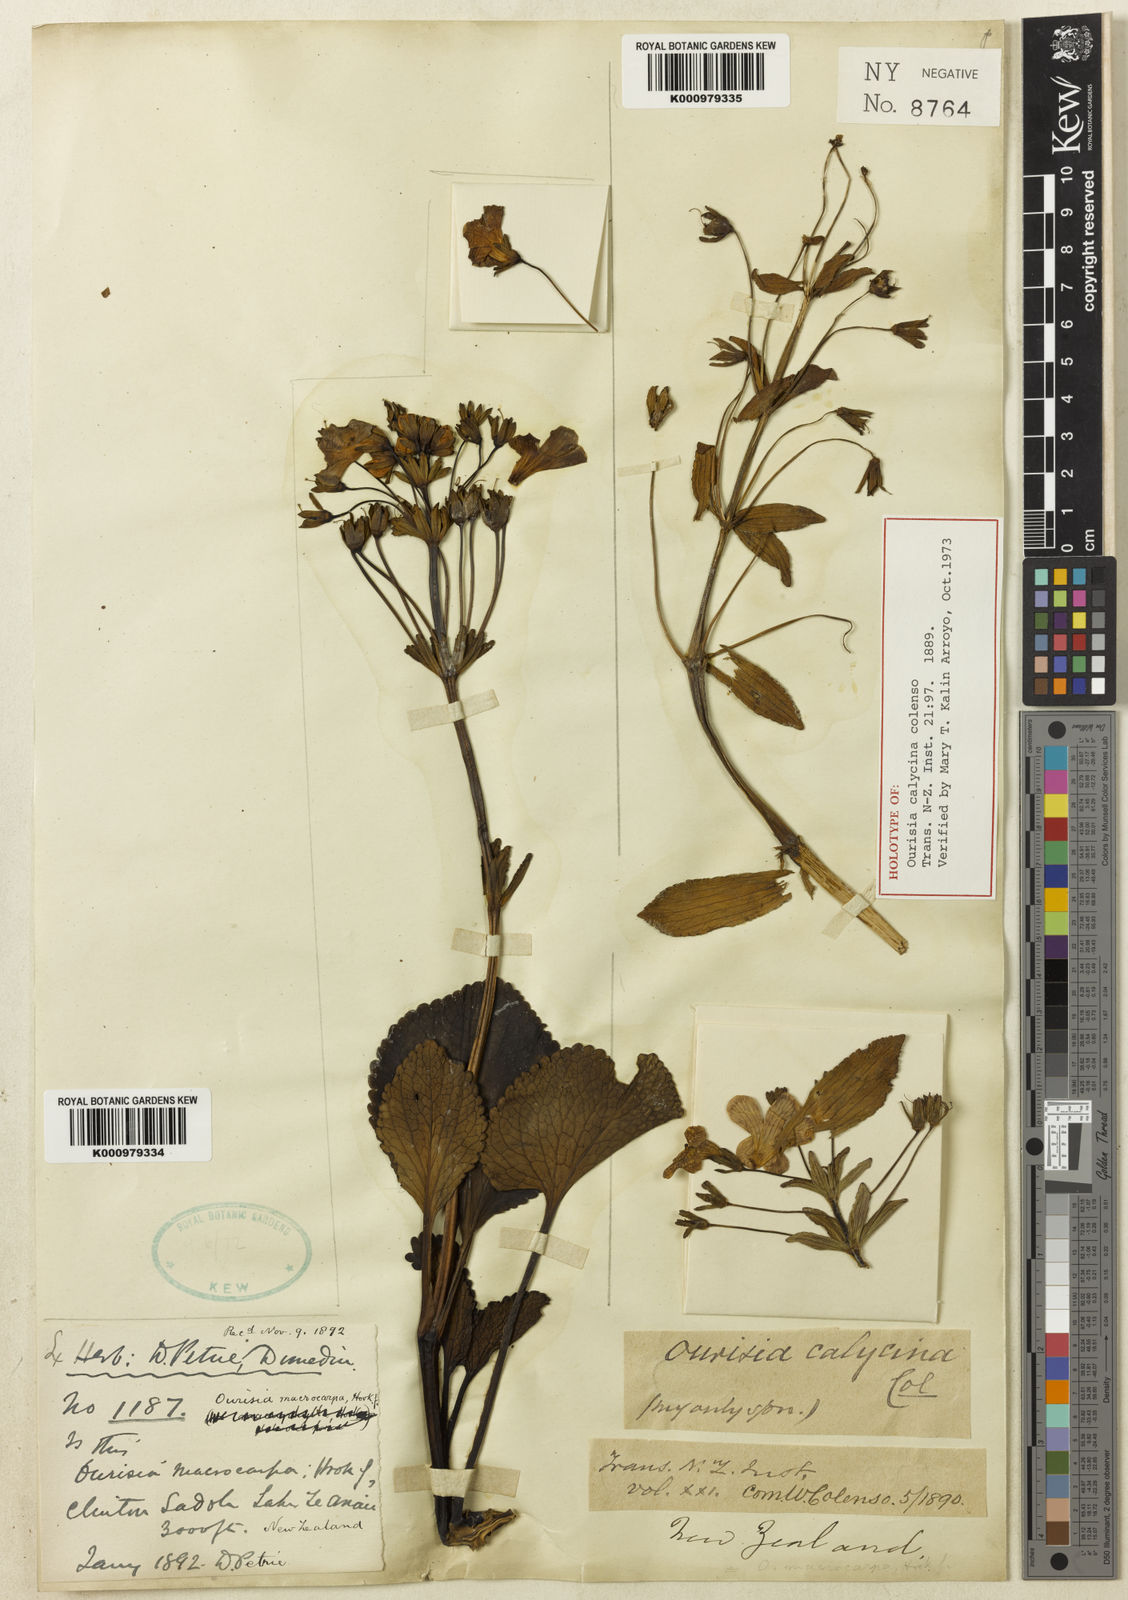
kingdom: Plantae
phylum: Tracheophyta
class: Magnoliopsida
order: Lamiales
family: Plantaginaceae
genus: Ourisia
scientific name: Ourisia calycina
